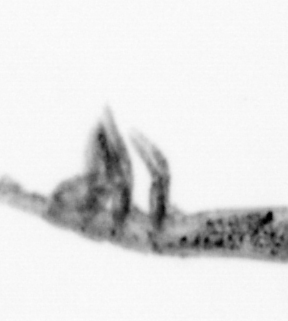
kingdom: Animalia
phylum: Arthropoda
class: Copepoda
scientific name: Copepoda
